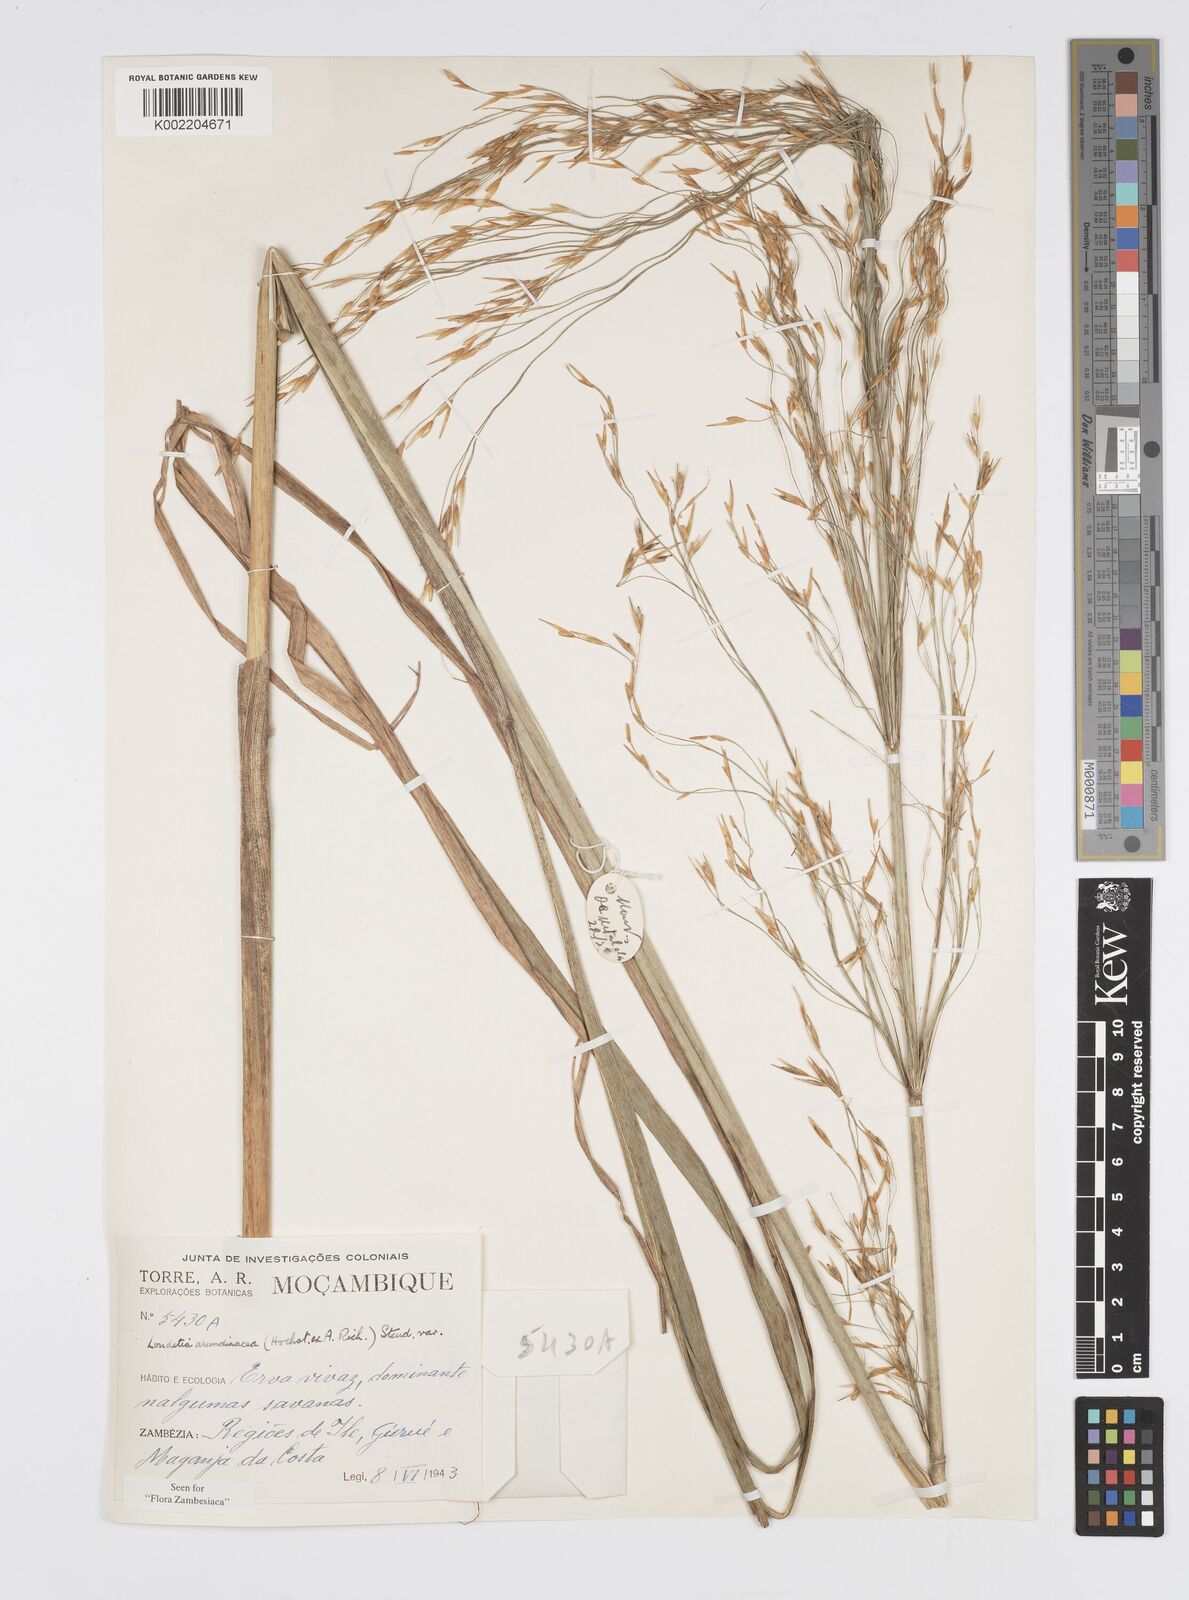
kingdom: Plantae
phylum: Tracheophyta
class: Liliopsida
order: Poales
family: Poaceae
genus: Loudetia
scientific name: Loudetia arundinacea
